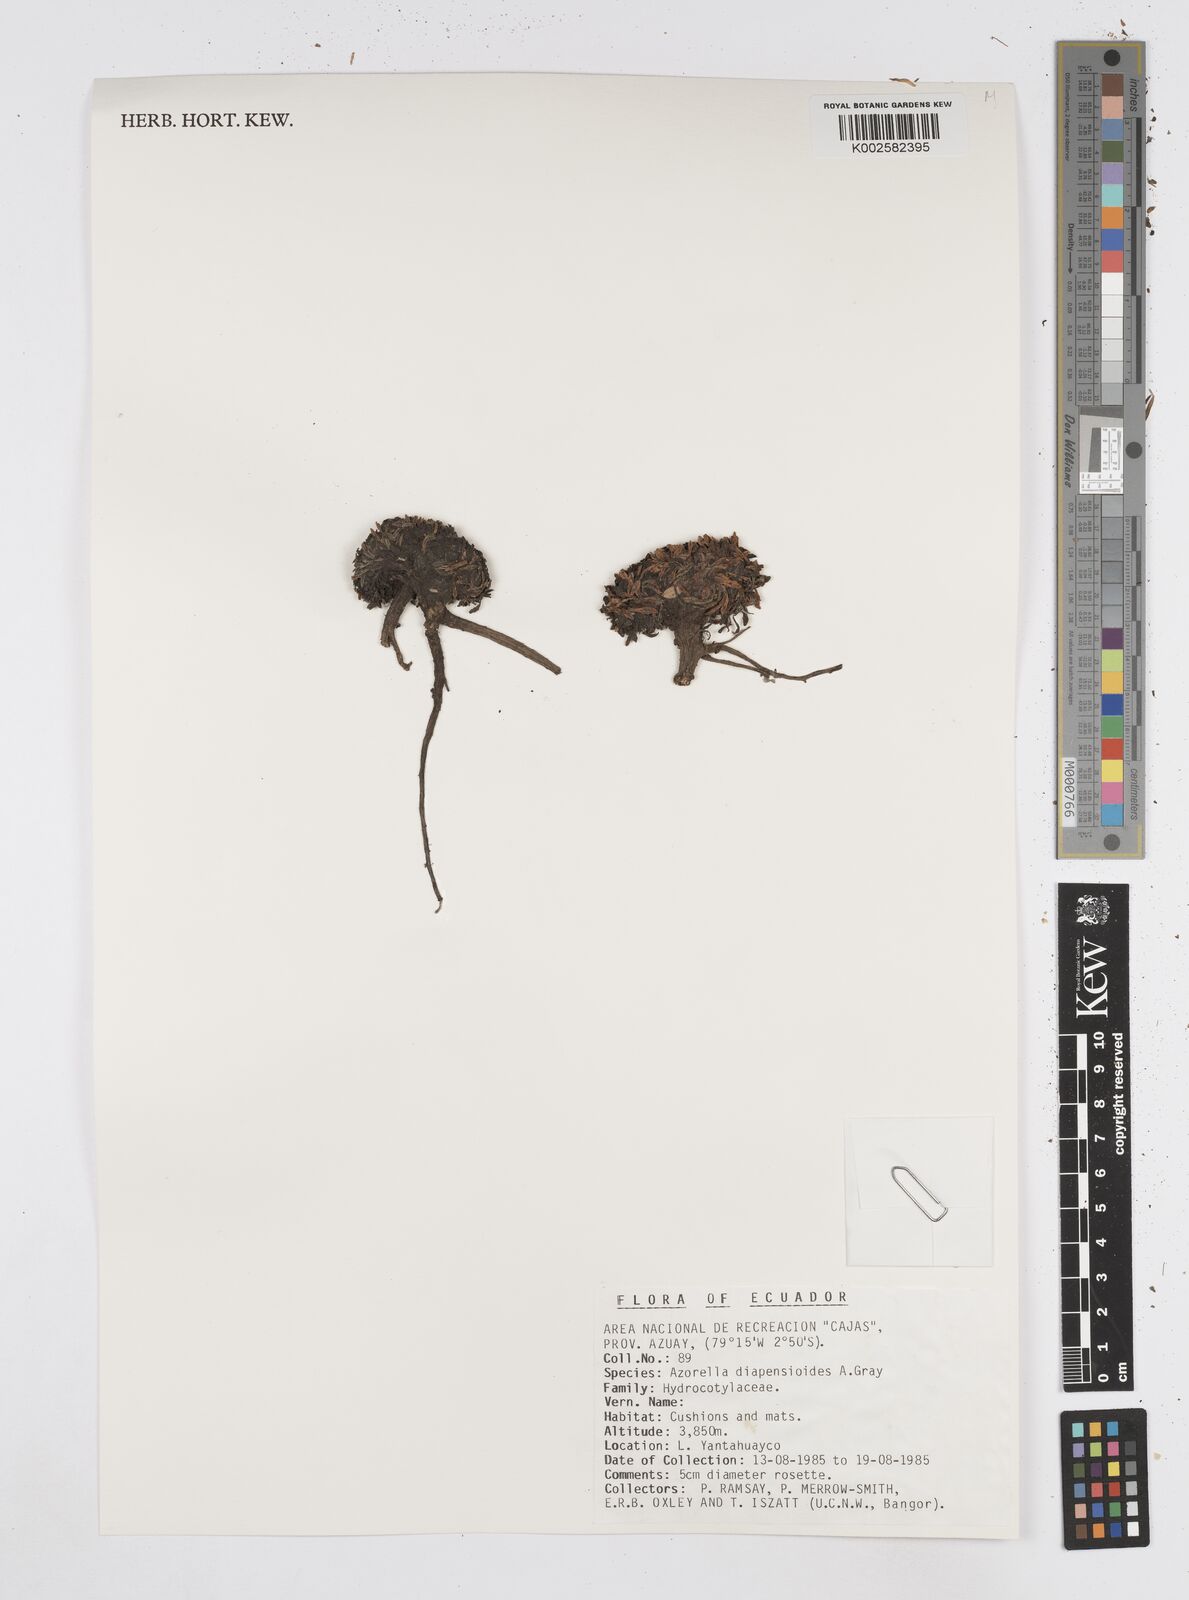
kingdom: Plantae
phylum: Tracheophyta
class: Magnoliopsida
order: Apiales
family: Apiaceae
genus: Azorella
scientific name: Azorella diapensioides
